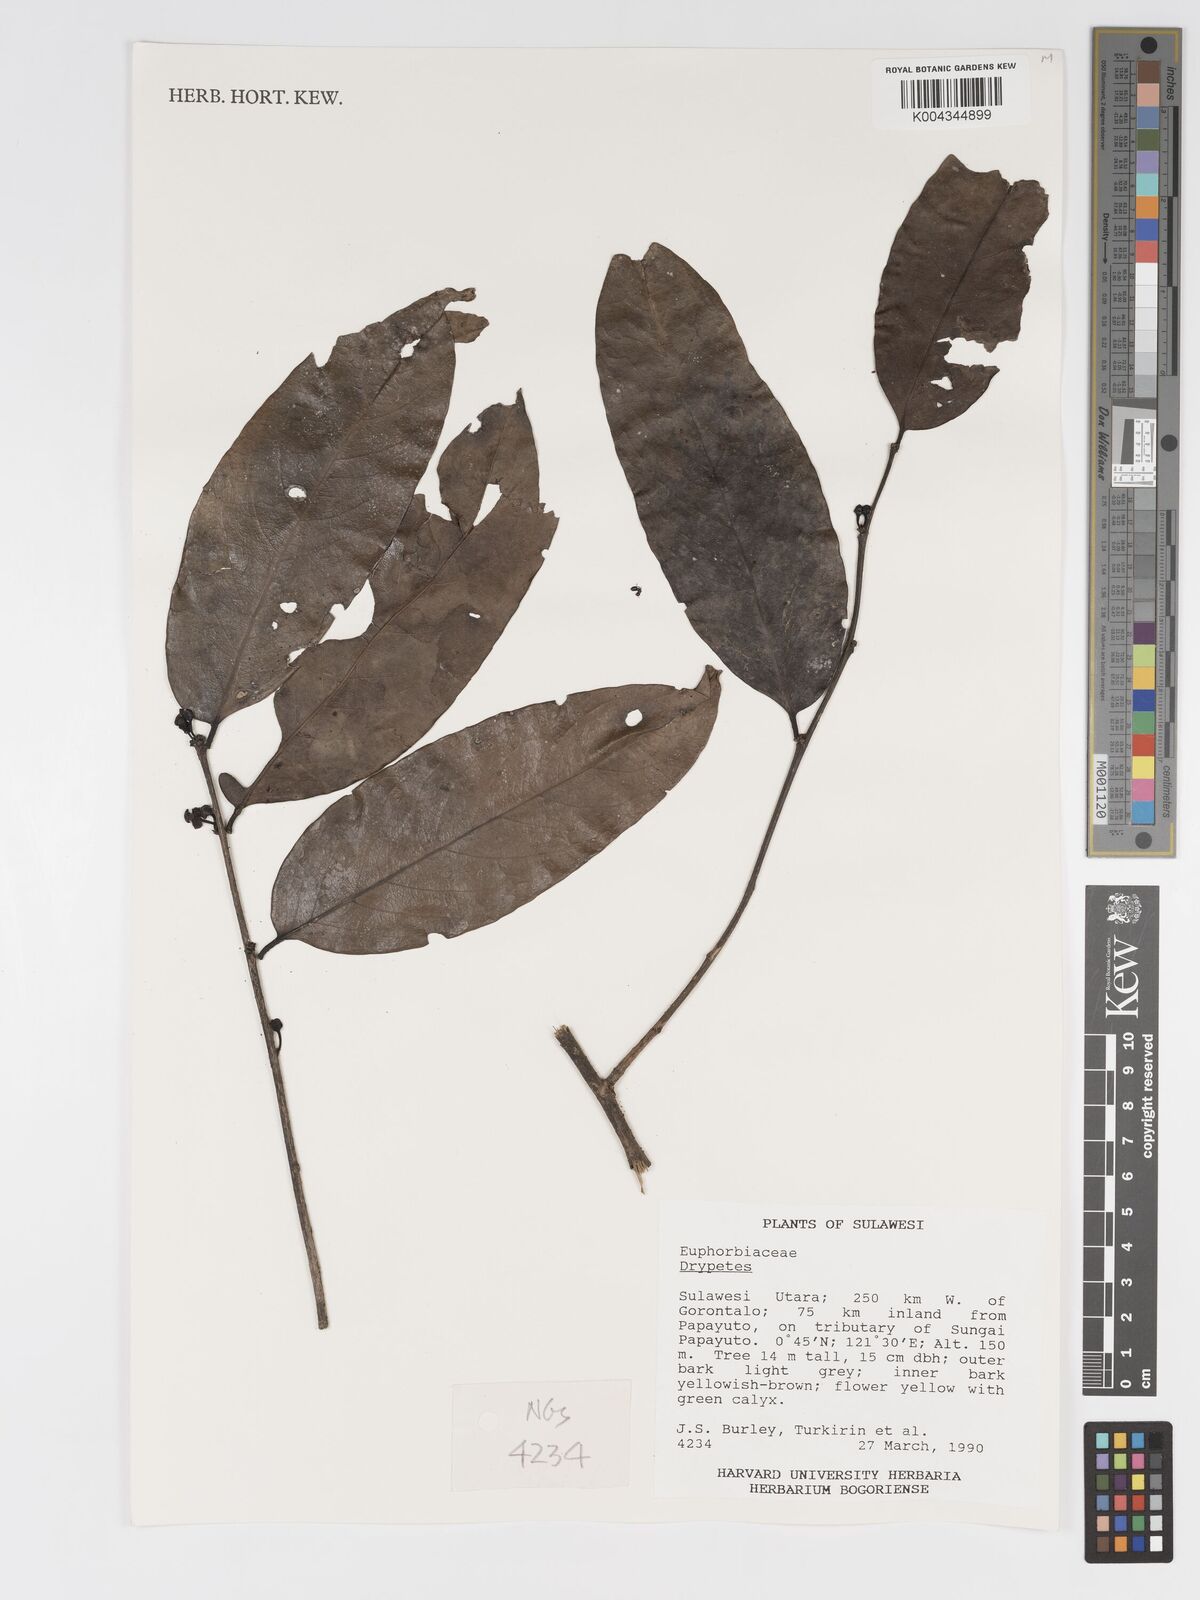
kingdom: Plantae
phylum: Tracheophyta
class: Magnoliopsida
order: Malpighiales
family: Putranjivaceae
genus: Drypetes
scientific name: Drypetes
